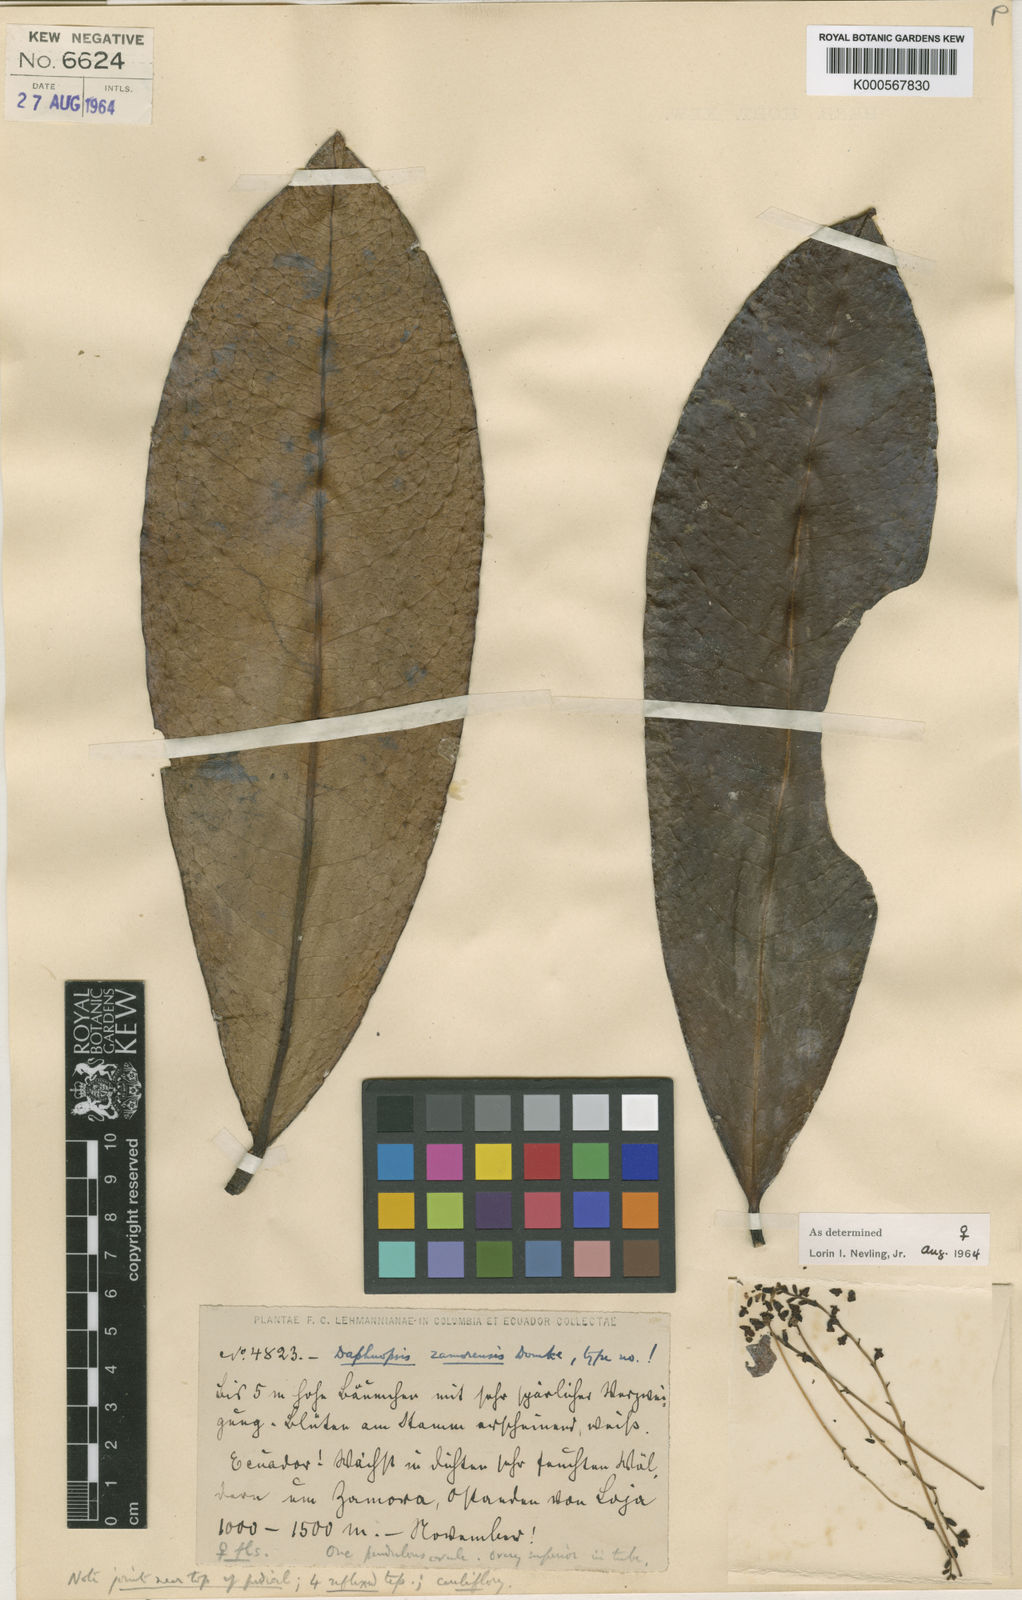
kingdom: Plantae
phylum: Tracheophyta
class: Magnoliopsida
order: Malvales
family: Thymelaeaceae
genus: Daphnopsis
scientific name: Daphnopsis zamorensis
